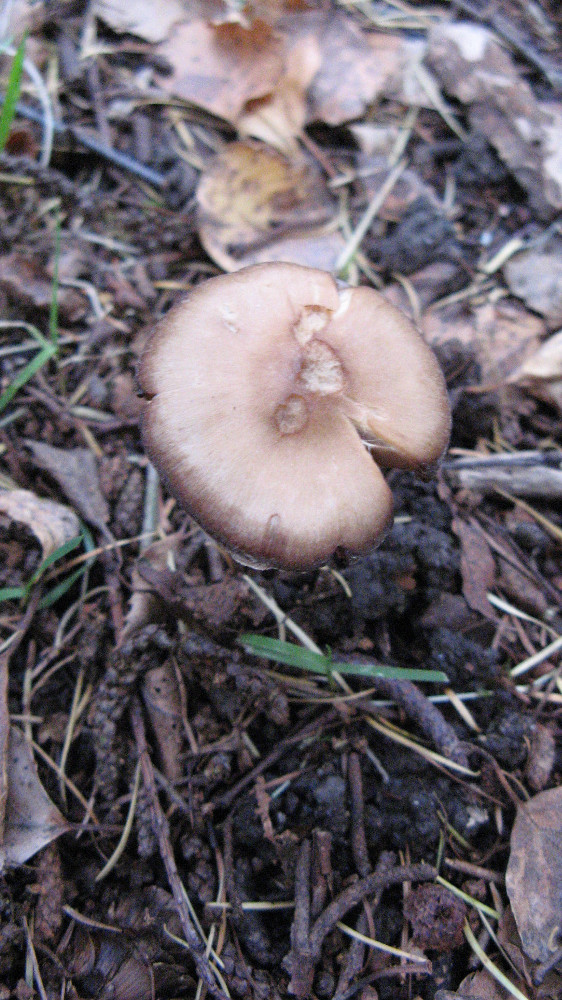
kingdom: Fungi
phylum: Basidiomycota
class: Agaricomycetes
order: Agaricales
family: Cortinariaceae
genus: Cortinarius
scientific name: Cortinarius
